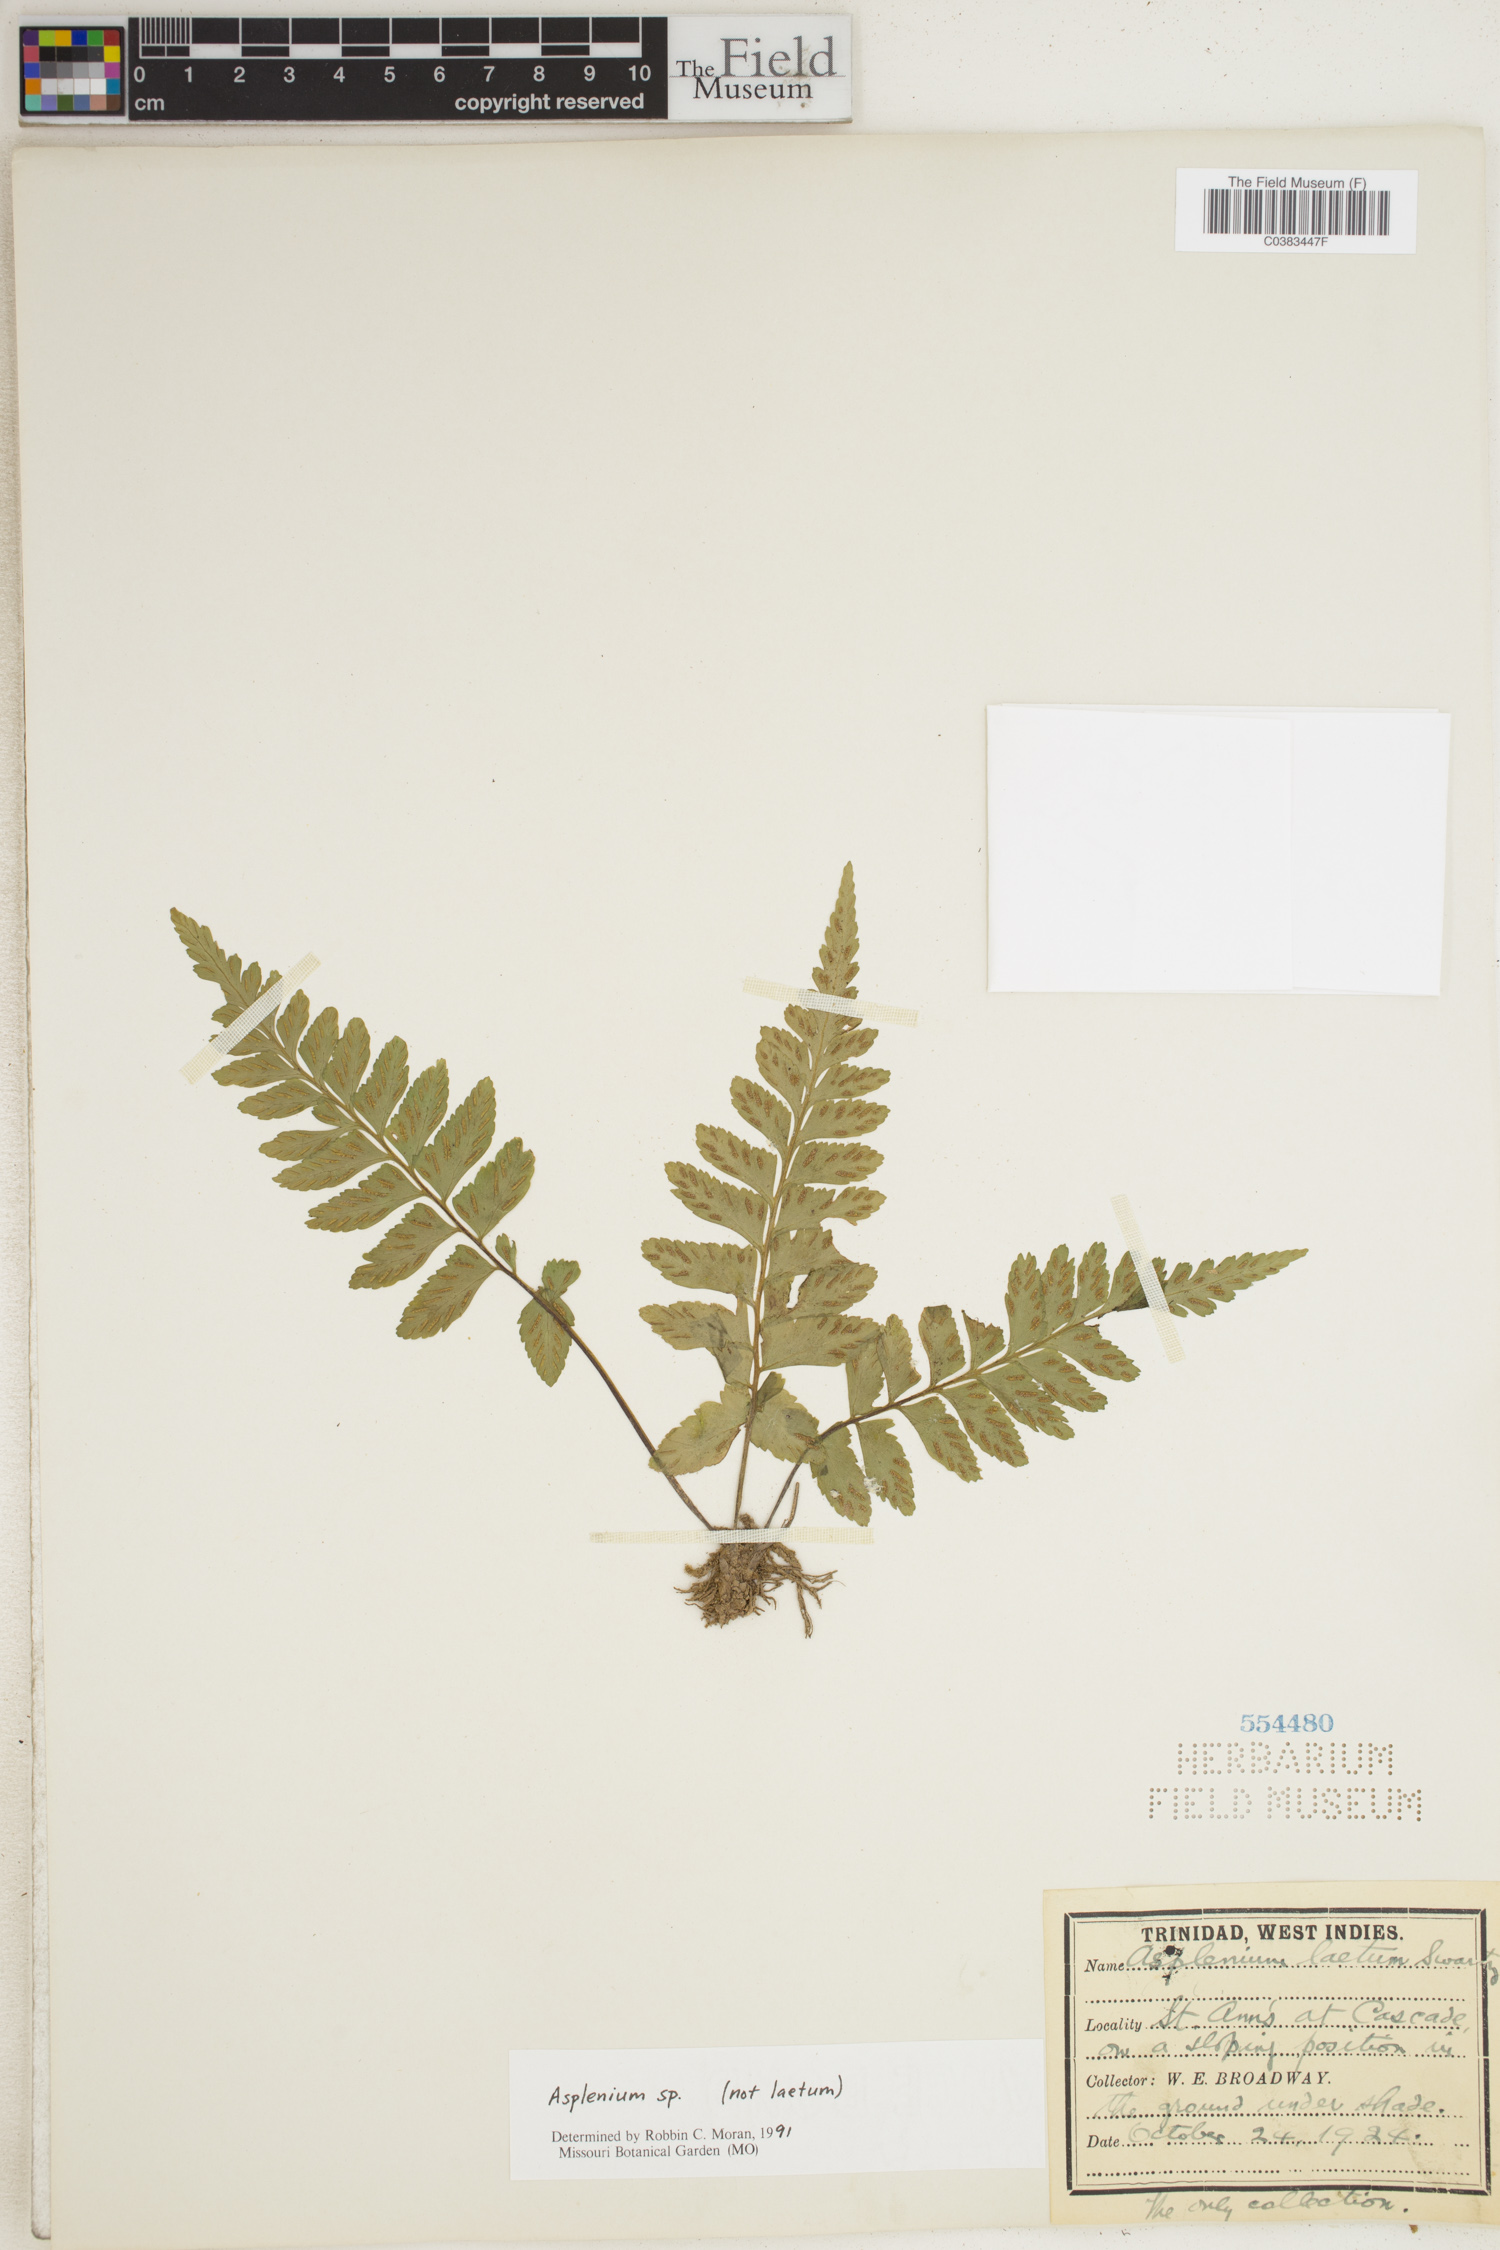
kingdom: Plantae
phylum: Tracheophyta
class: Polypodiopsida
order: Polypodiales
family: Aspleniaceae
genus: Asplenium
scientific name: Asplenium
